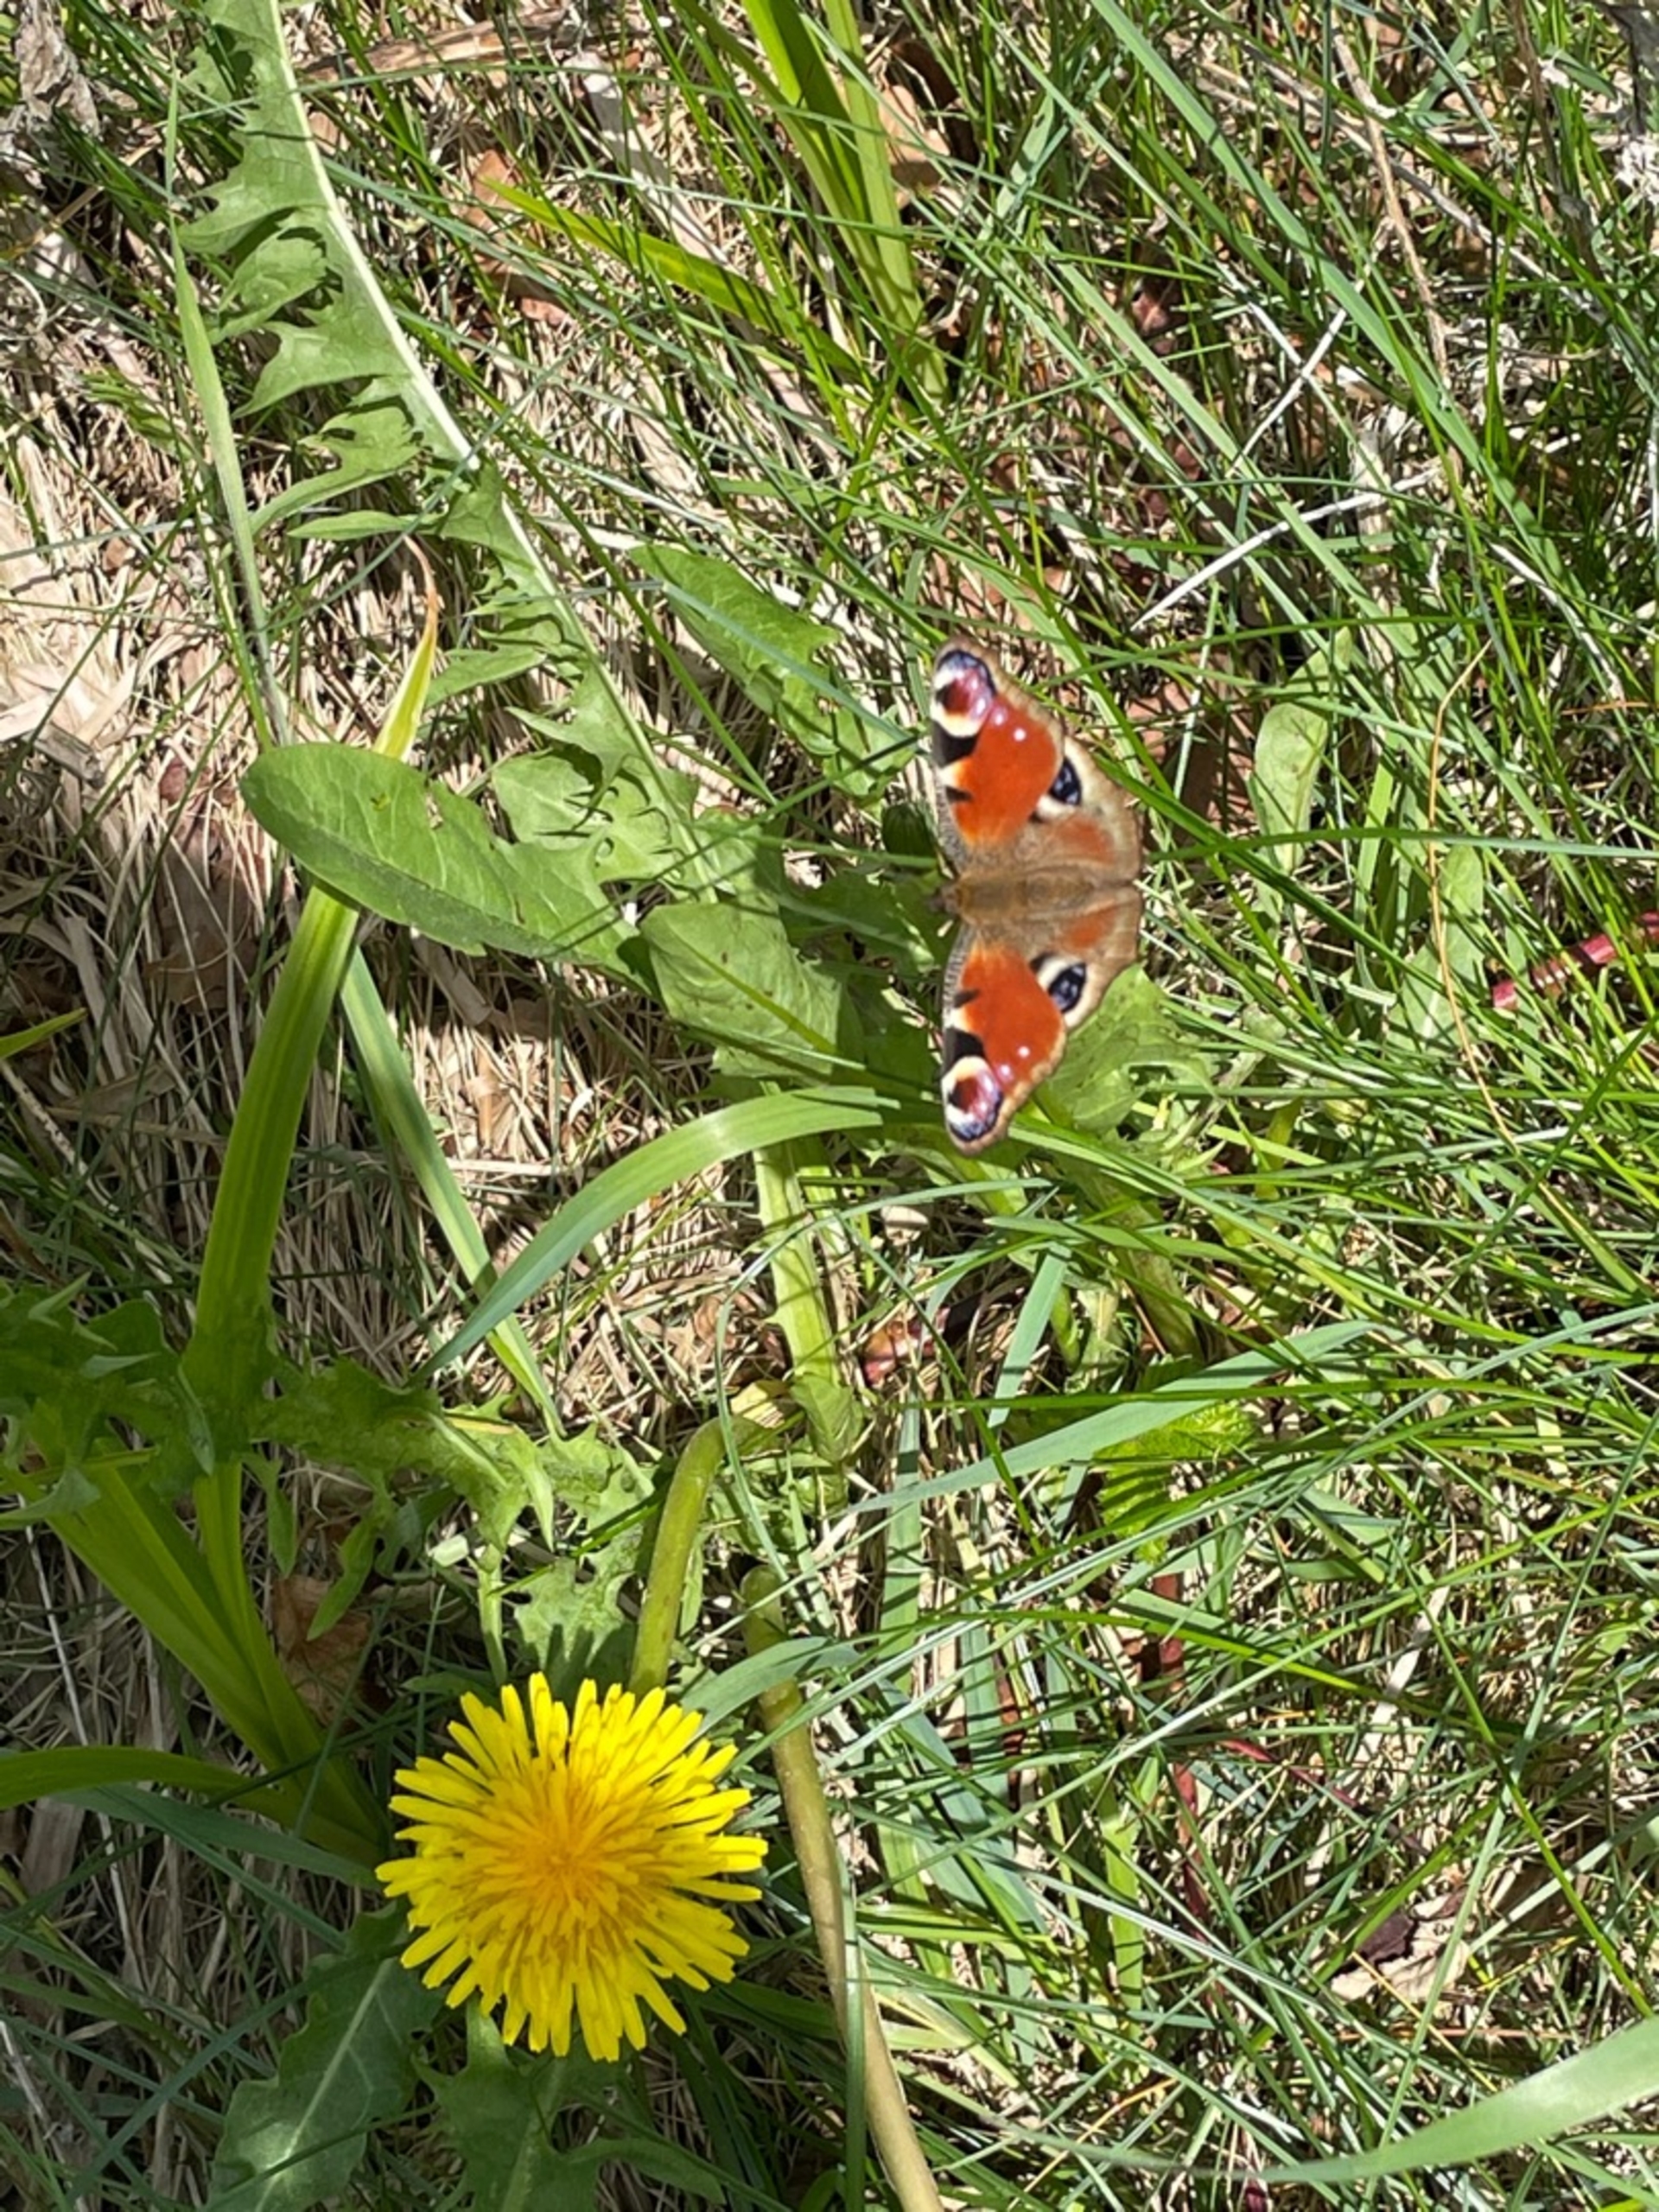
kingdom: Animalia
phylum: Arthropoda
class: Insecta
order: Lepidoptera
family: Nymphalidae
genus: Aglais
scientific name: Aglais io
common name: Dagpåfugleøje
